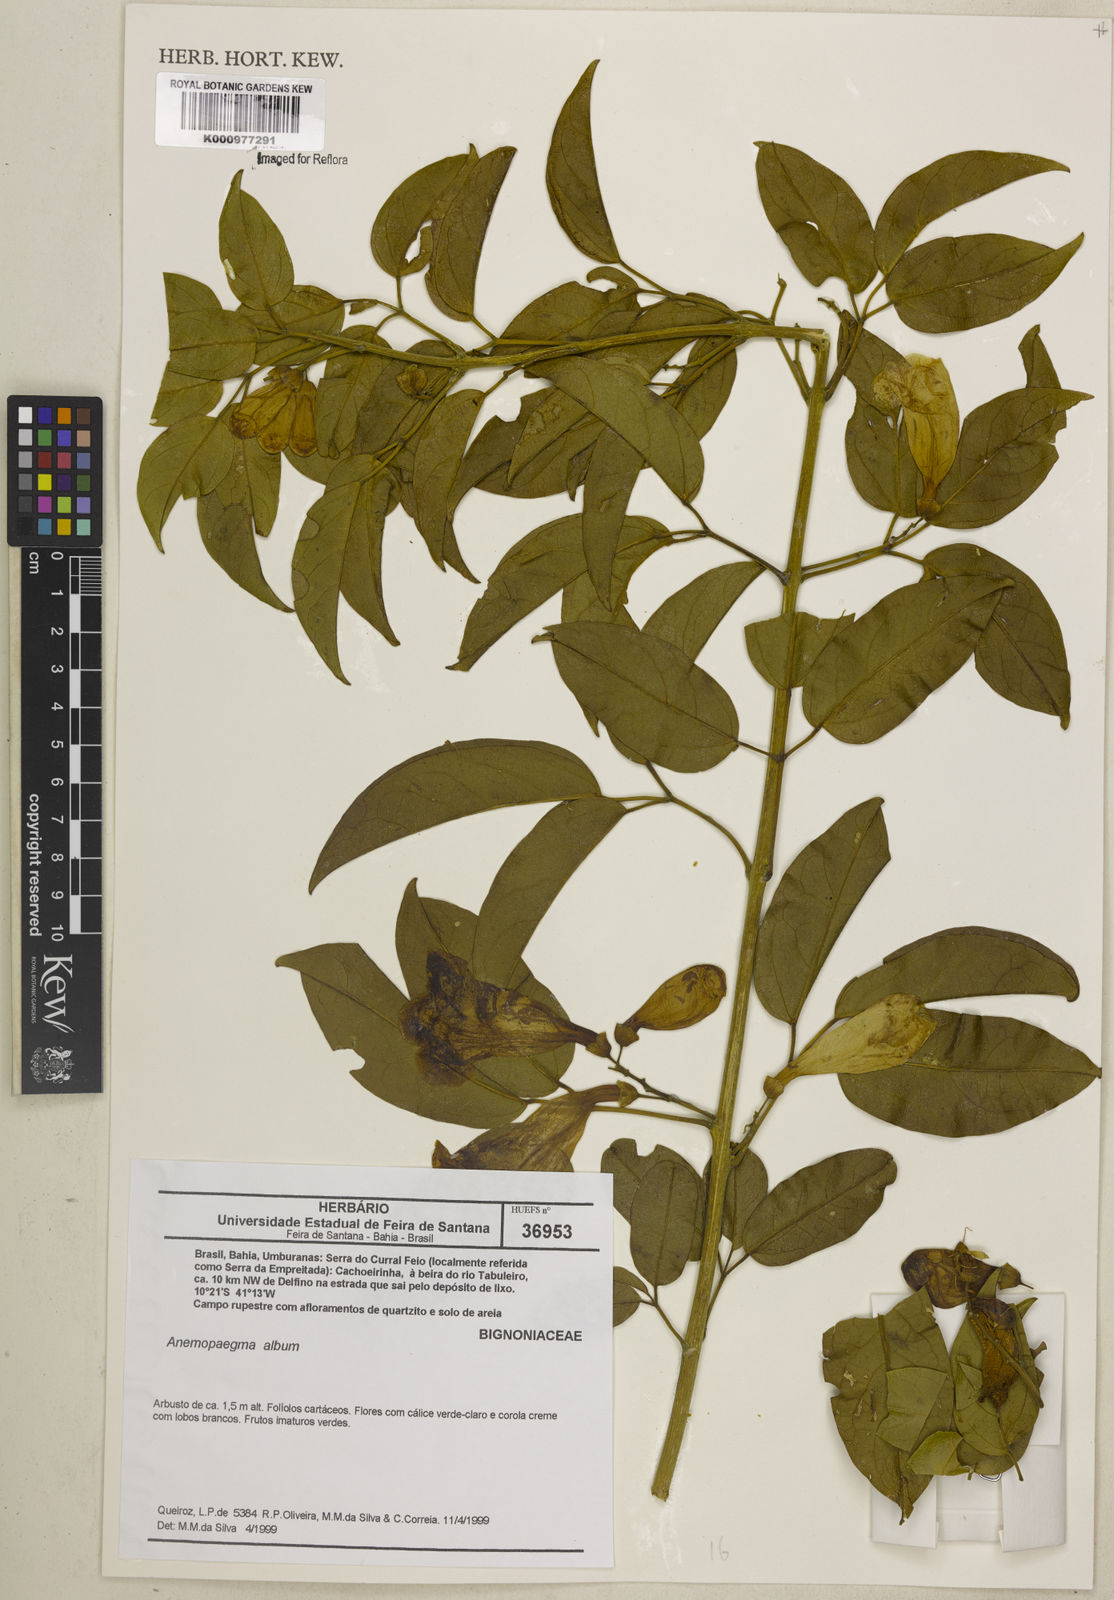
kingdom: Plantae
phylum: Tracheophyta
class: Magnoliopsida
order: Lamiales
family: Bignoniaceae
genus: Anemopaegma
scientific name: Anemopaegma album
